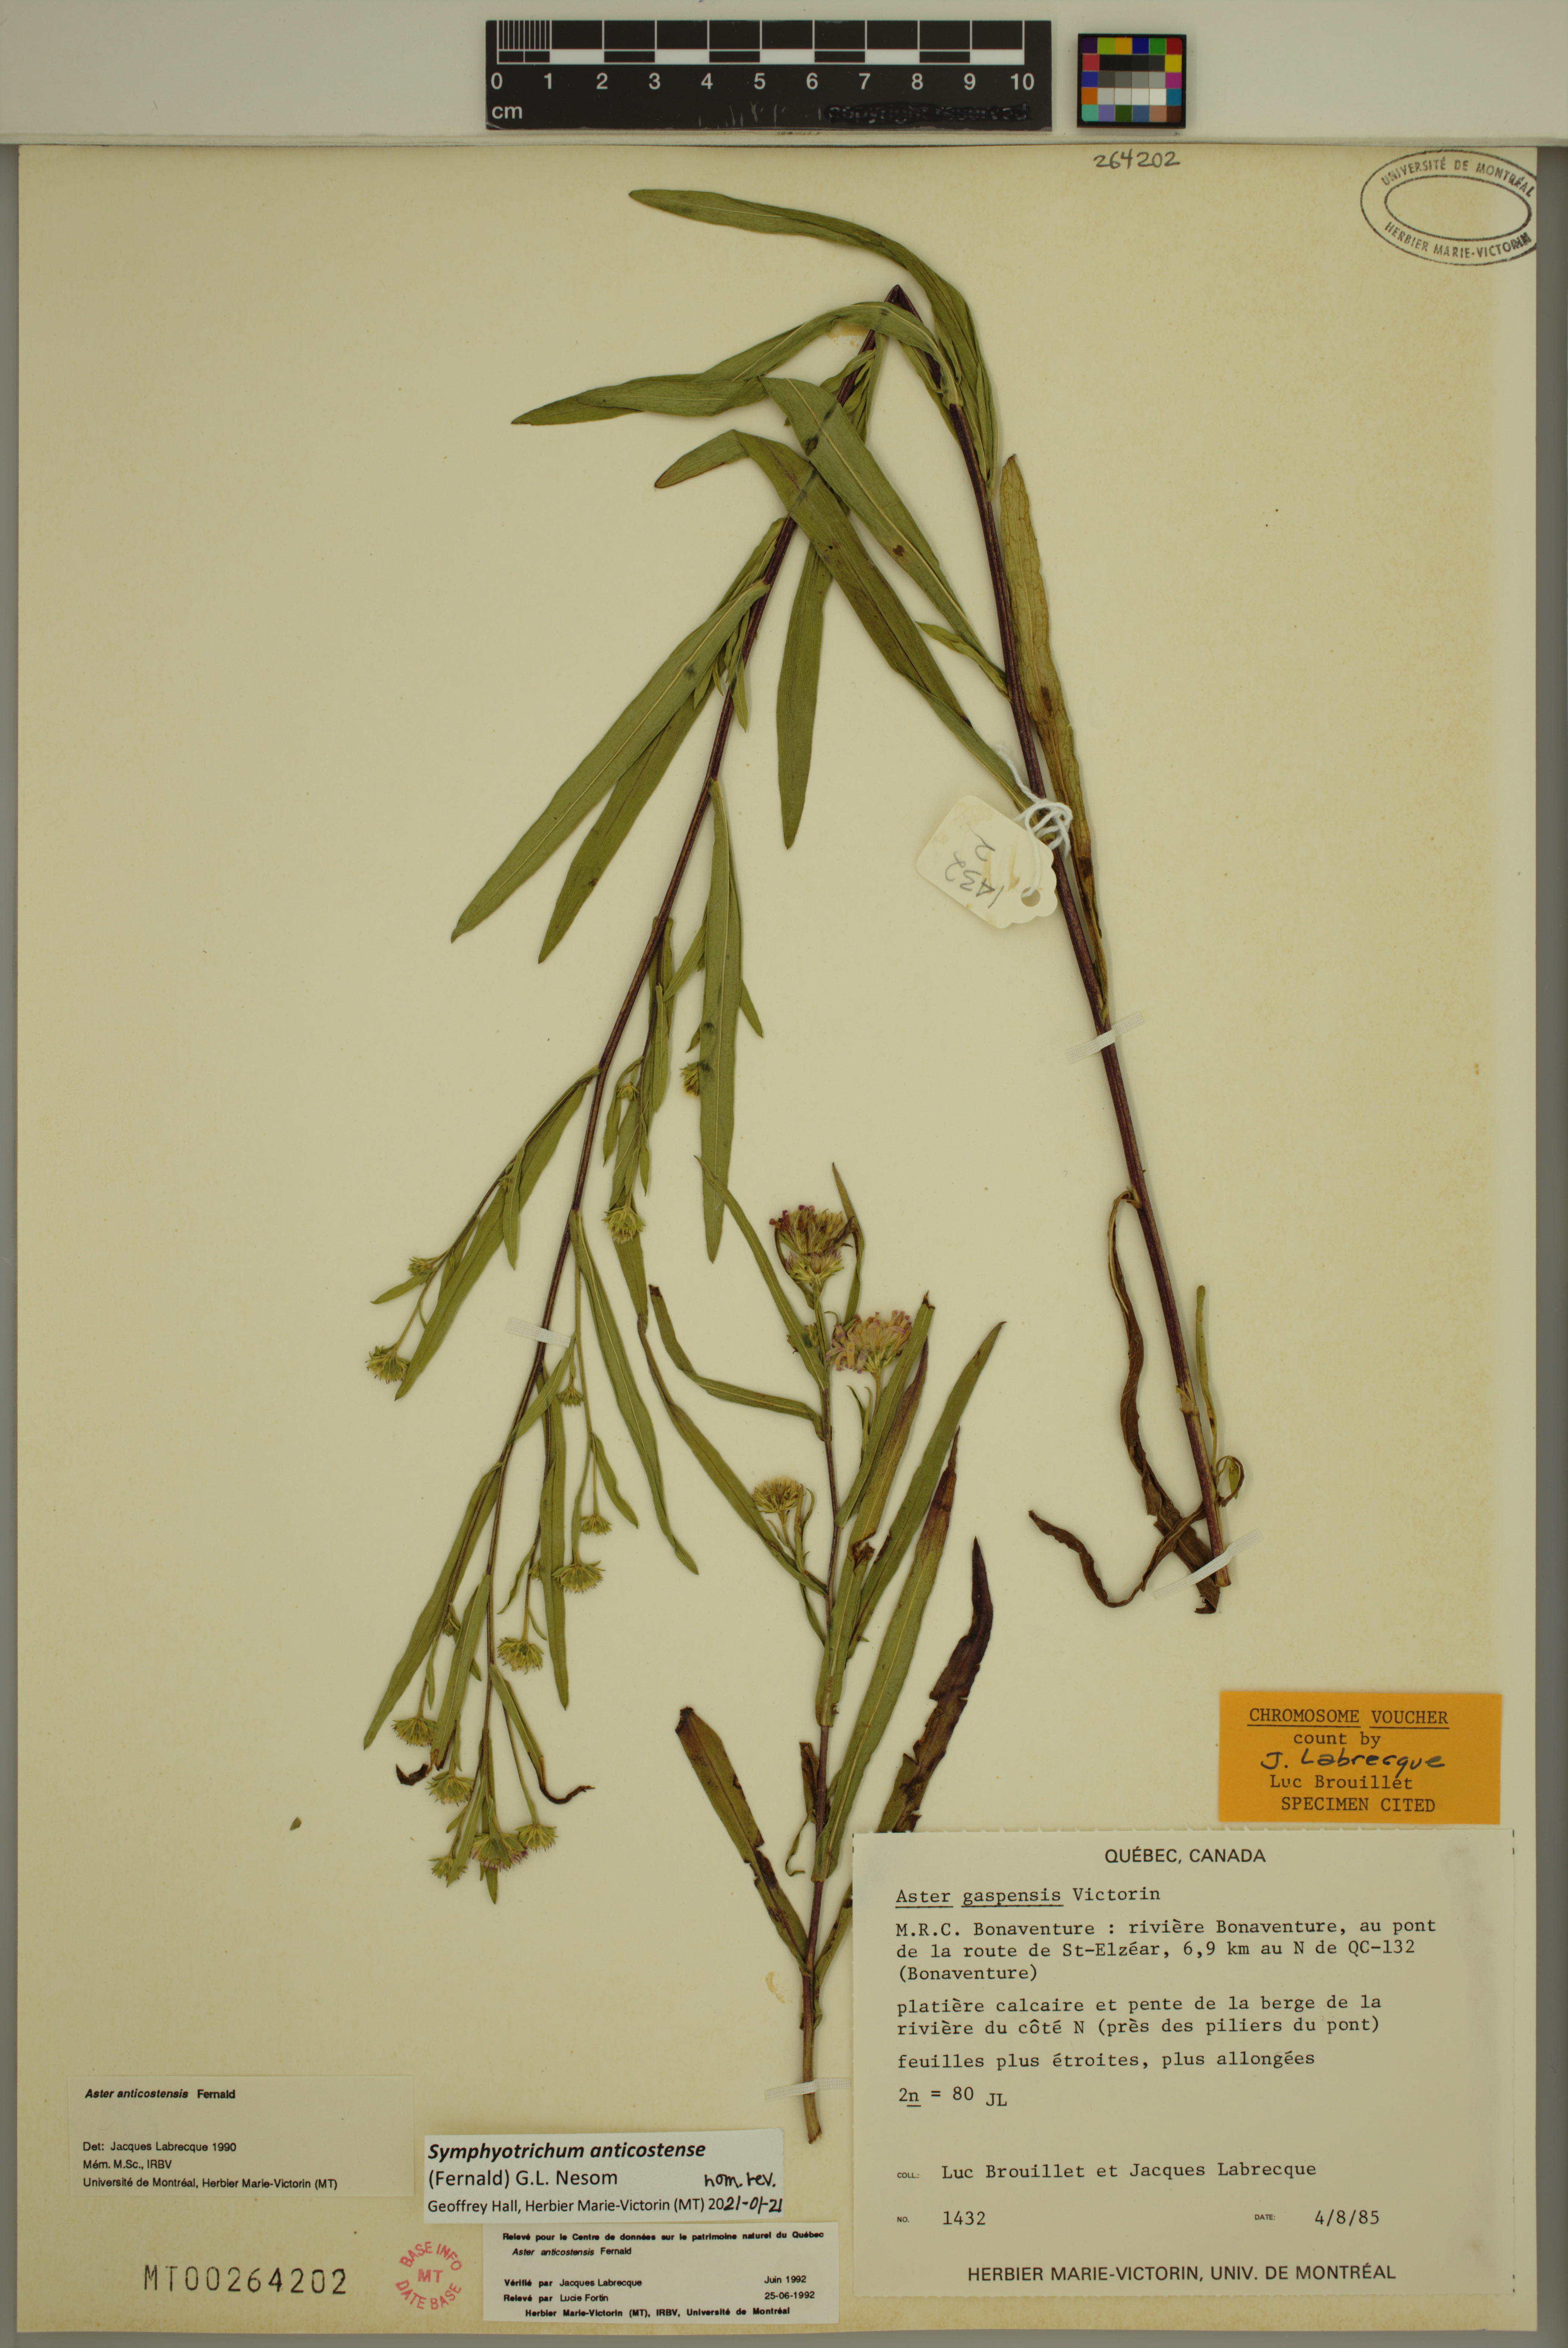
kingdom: Plantae
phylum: Tracheophyta
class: Magnoliopsida
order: Asterales
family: Asteraceae
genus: Symphyotrichum
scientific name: Symphyotrichum anticostense
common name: Anticosti island aster
